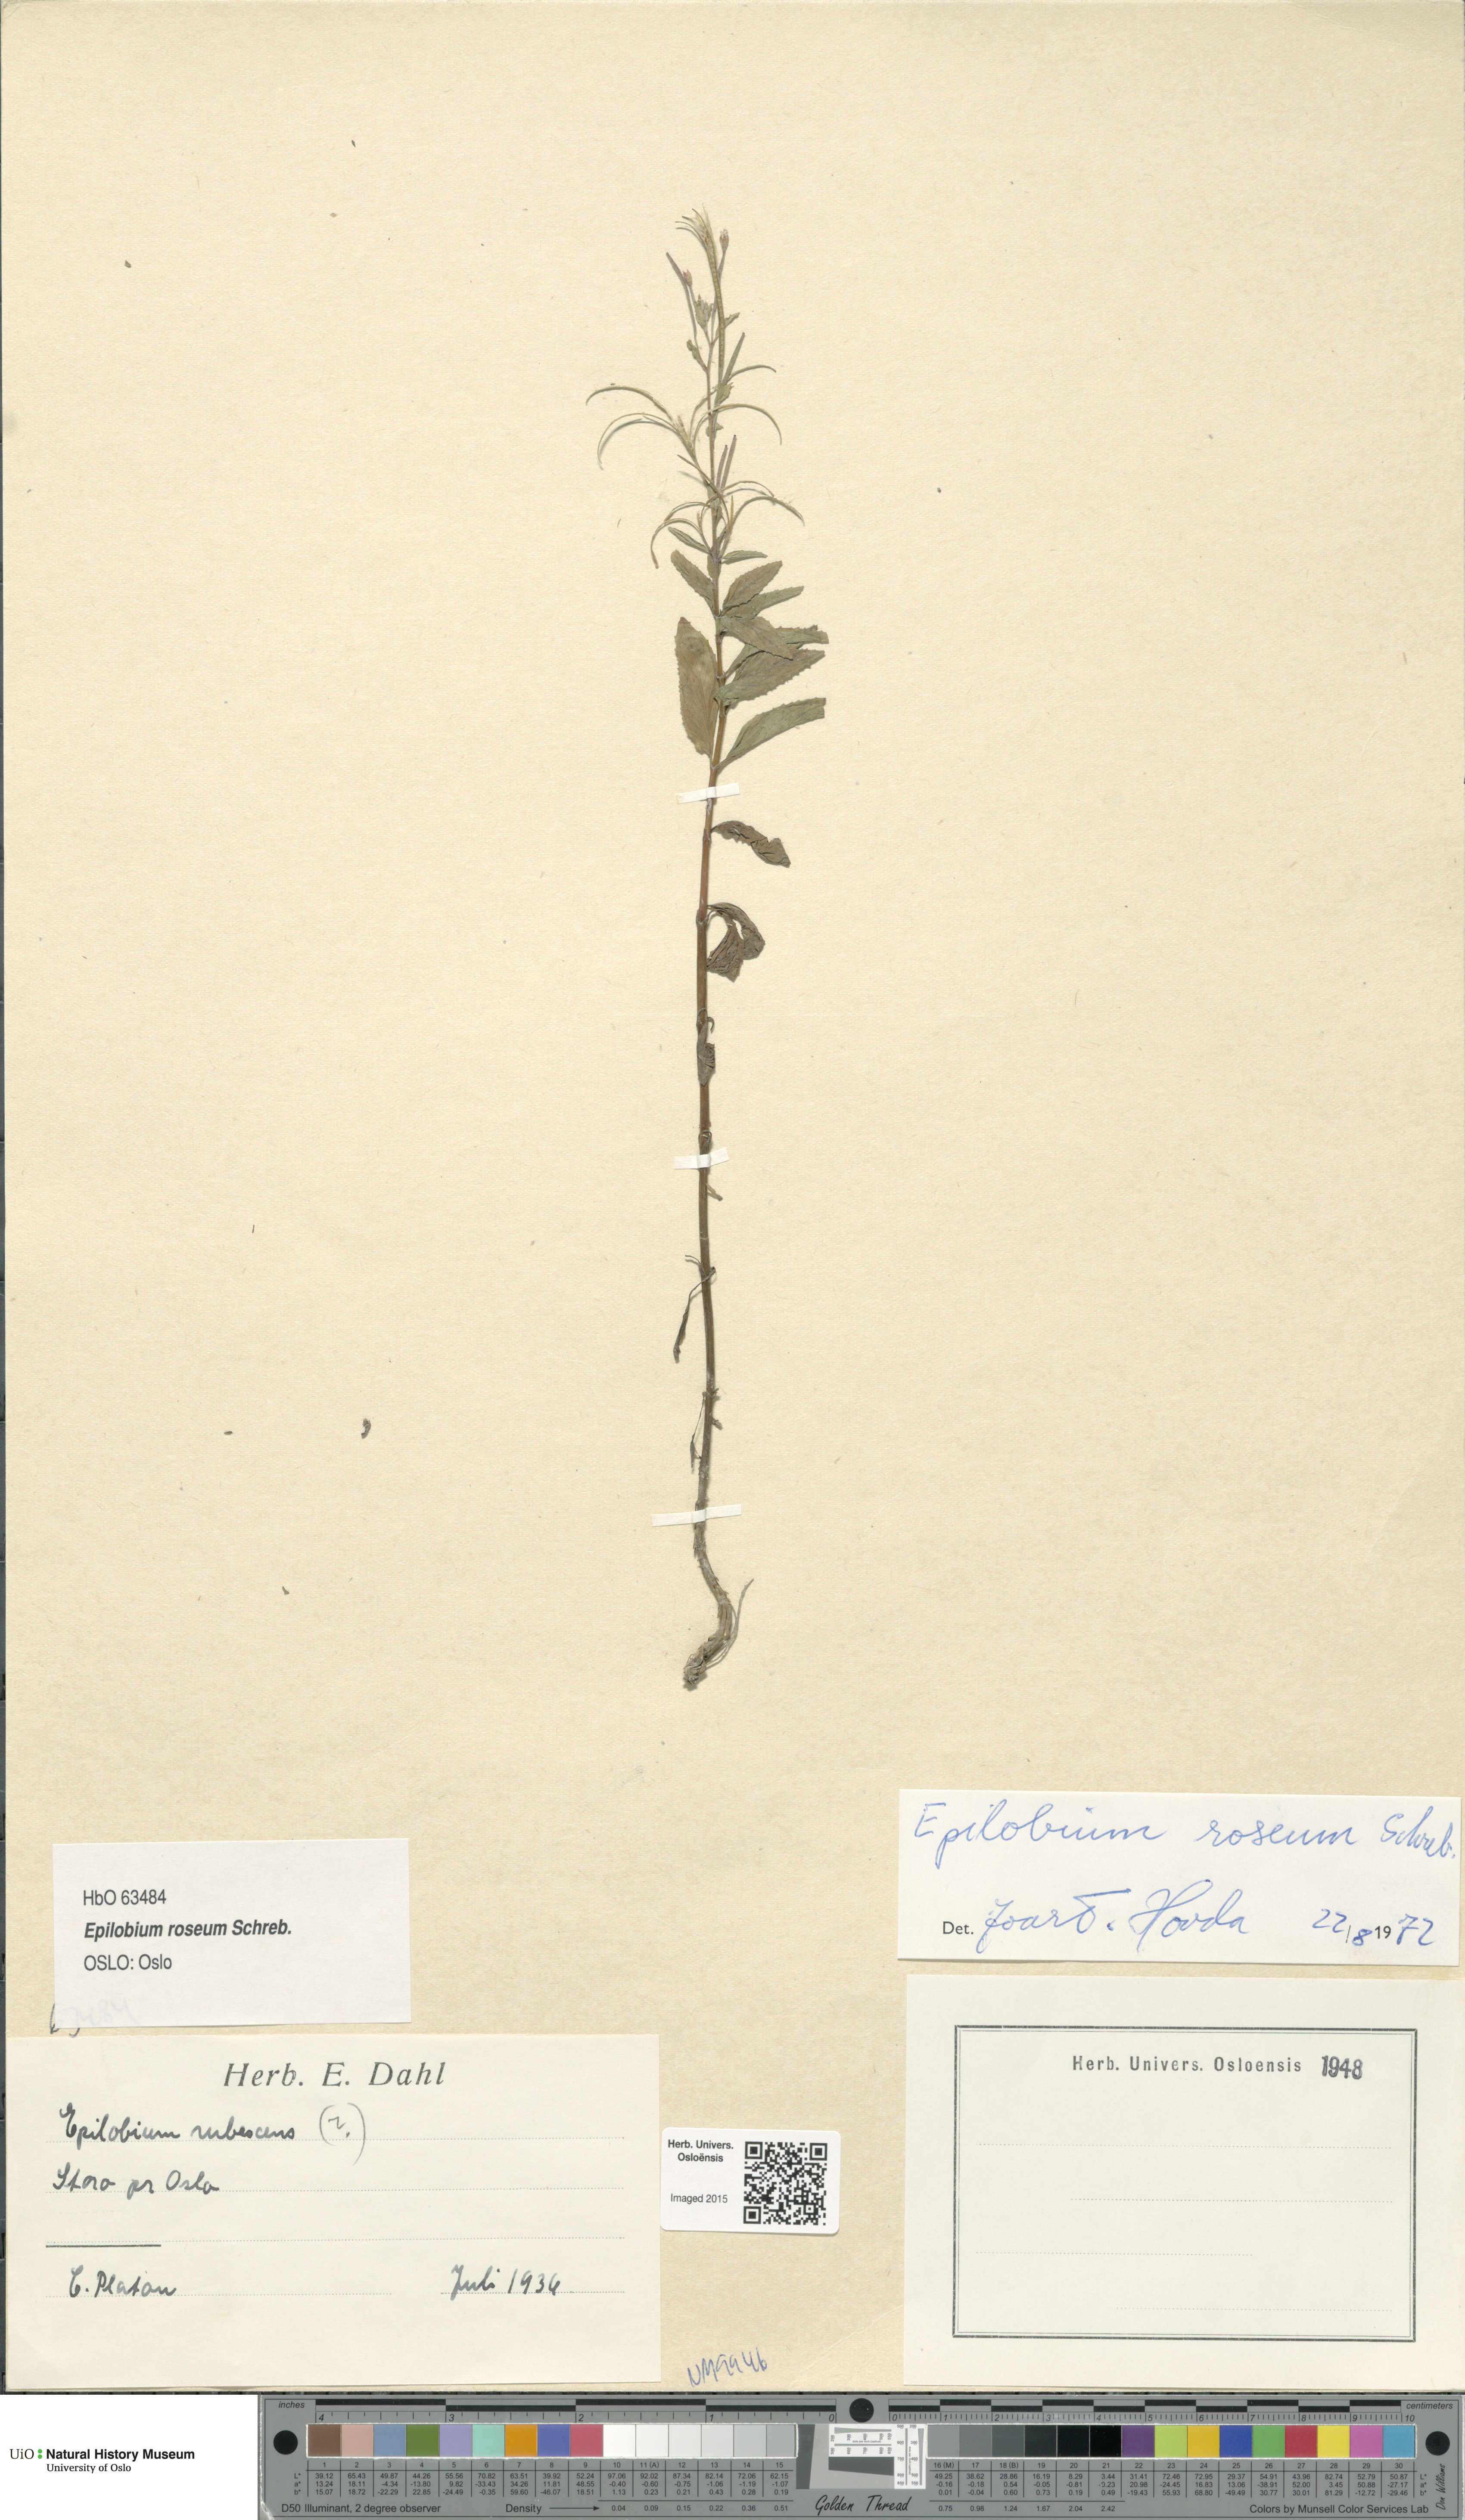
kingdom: Plantae
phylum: Tracheophyta
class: Magnoliopsida
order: Myrtales
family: Onagraceae
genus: Epilobium
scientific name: Epilobium roseum
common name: Pale willowherb
